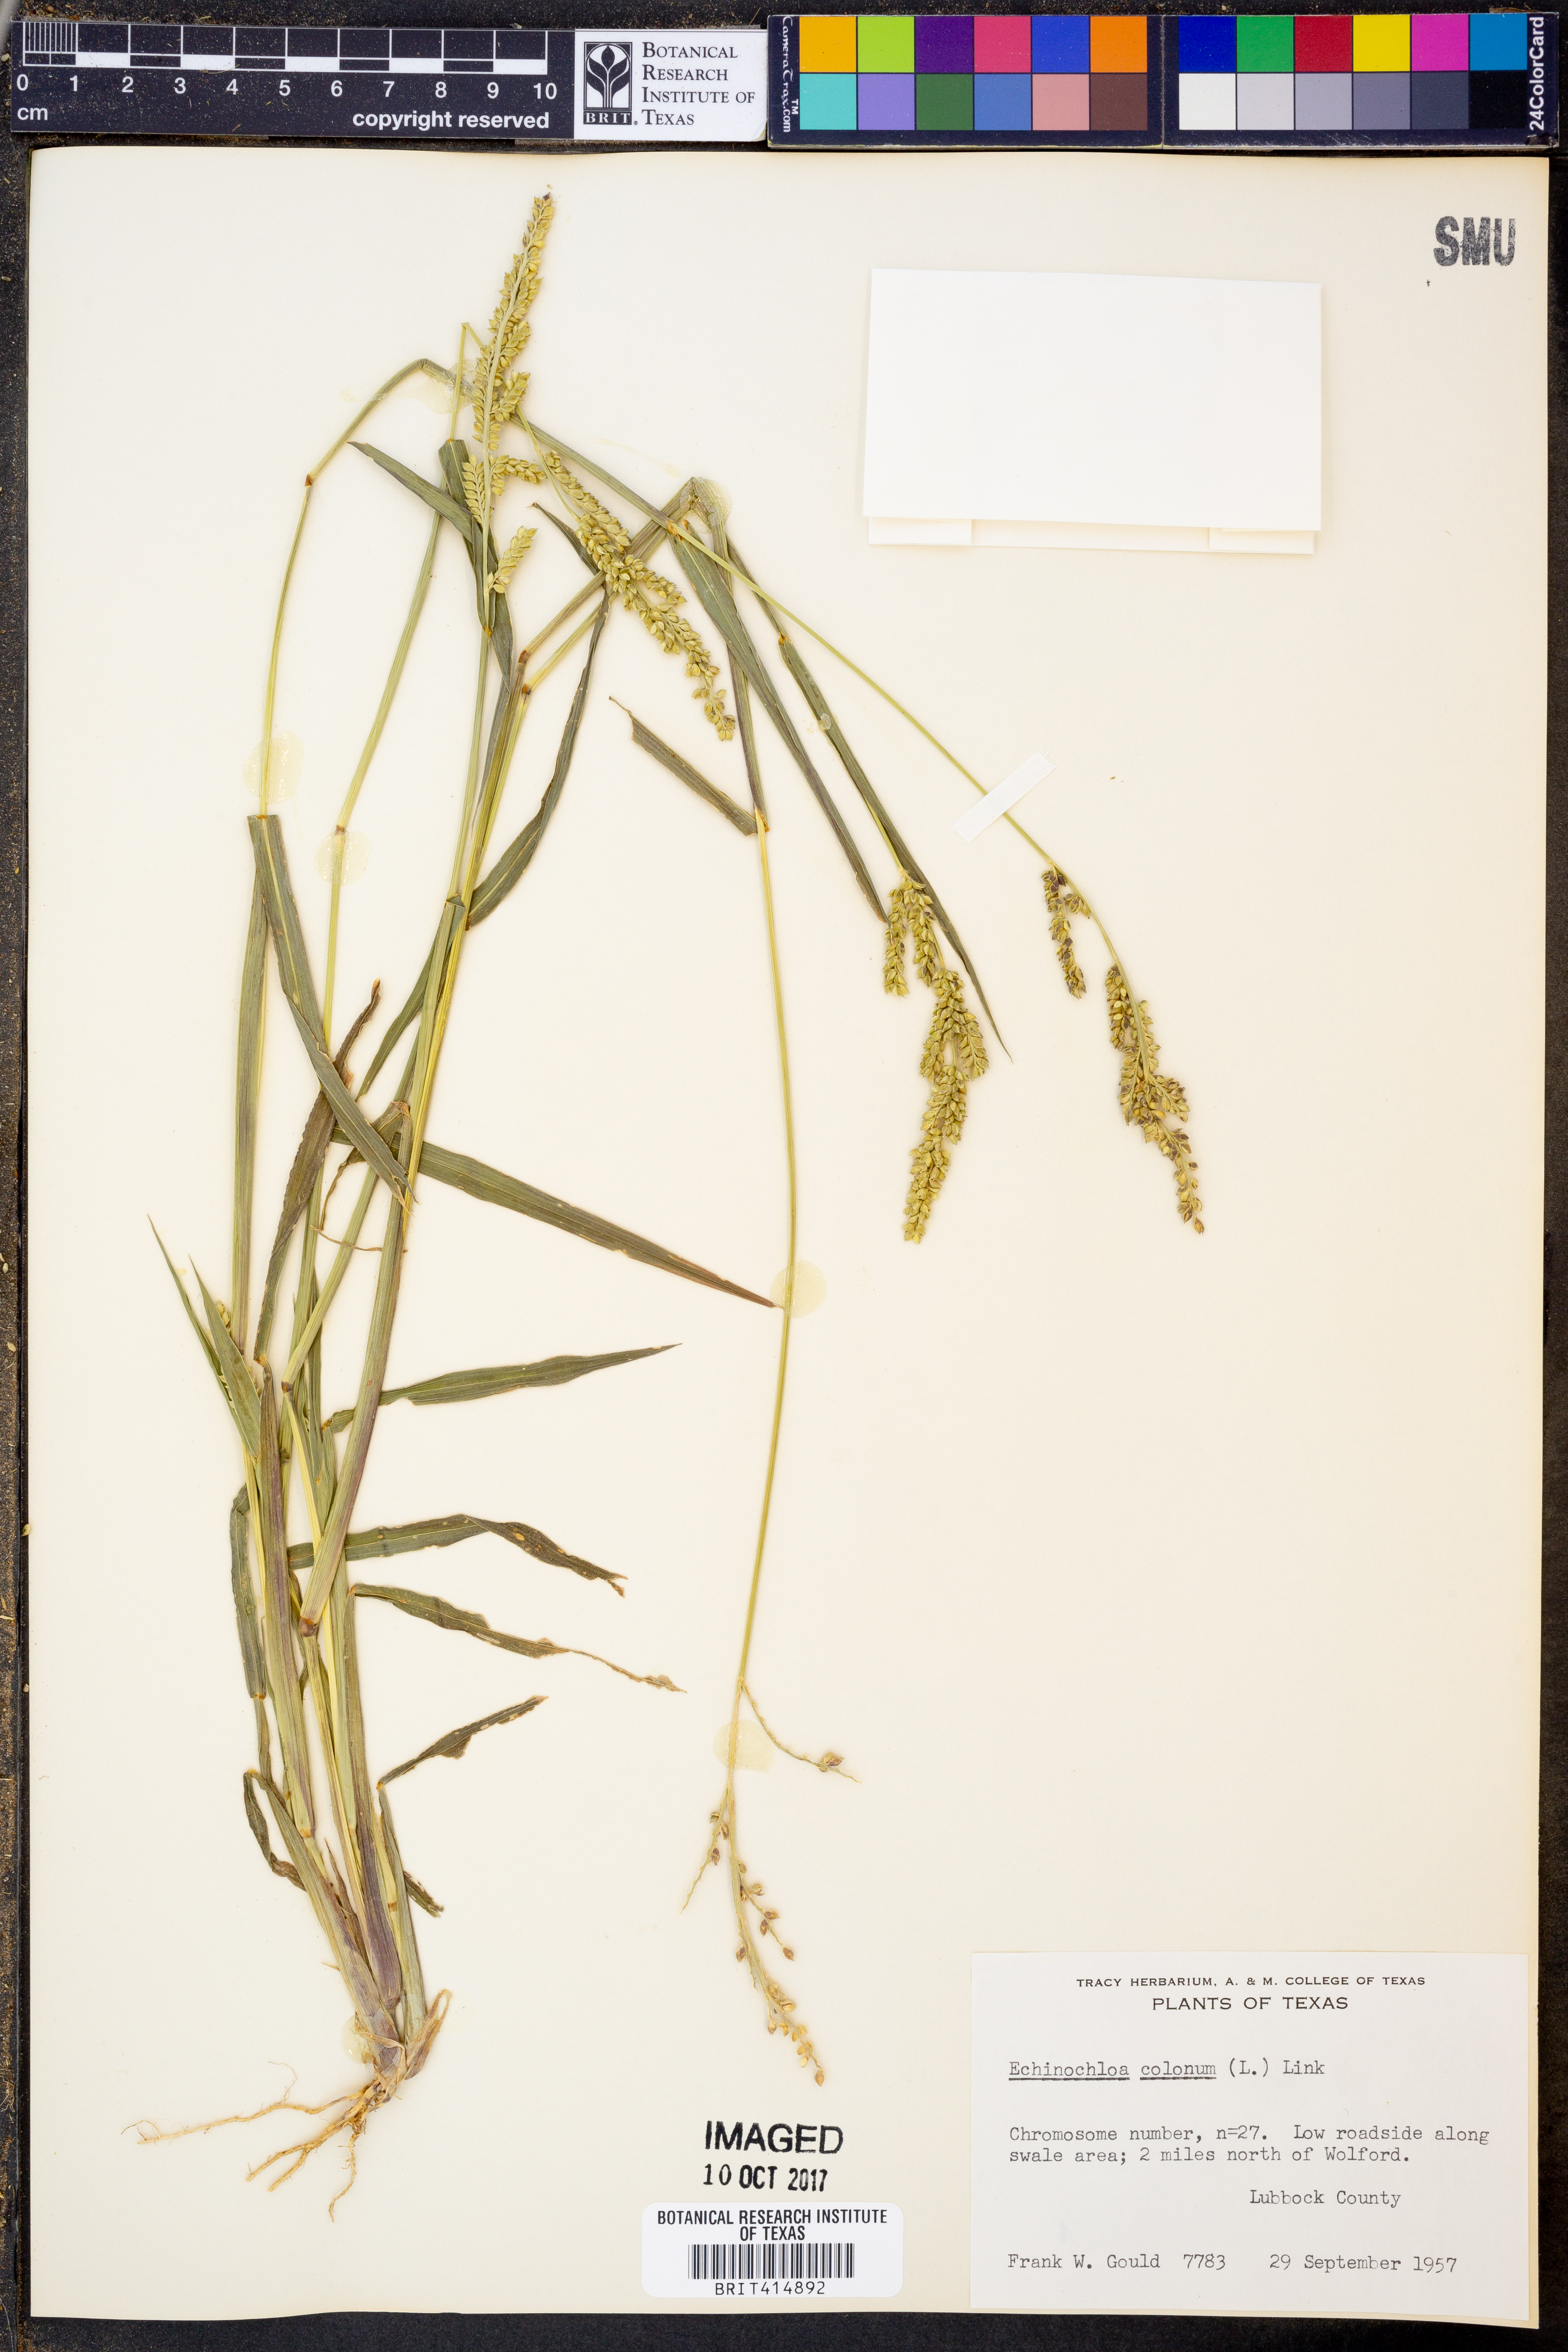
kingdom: Plantae
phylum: Tracheophyta
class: Liliopsida
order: Poales
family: Poaceae
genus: Echinochloa
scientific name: Echinochloa colonum
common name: Jungle rice
